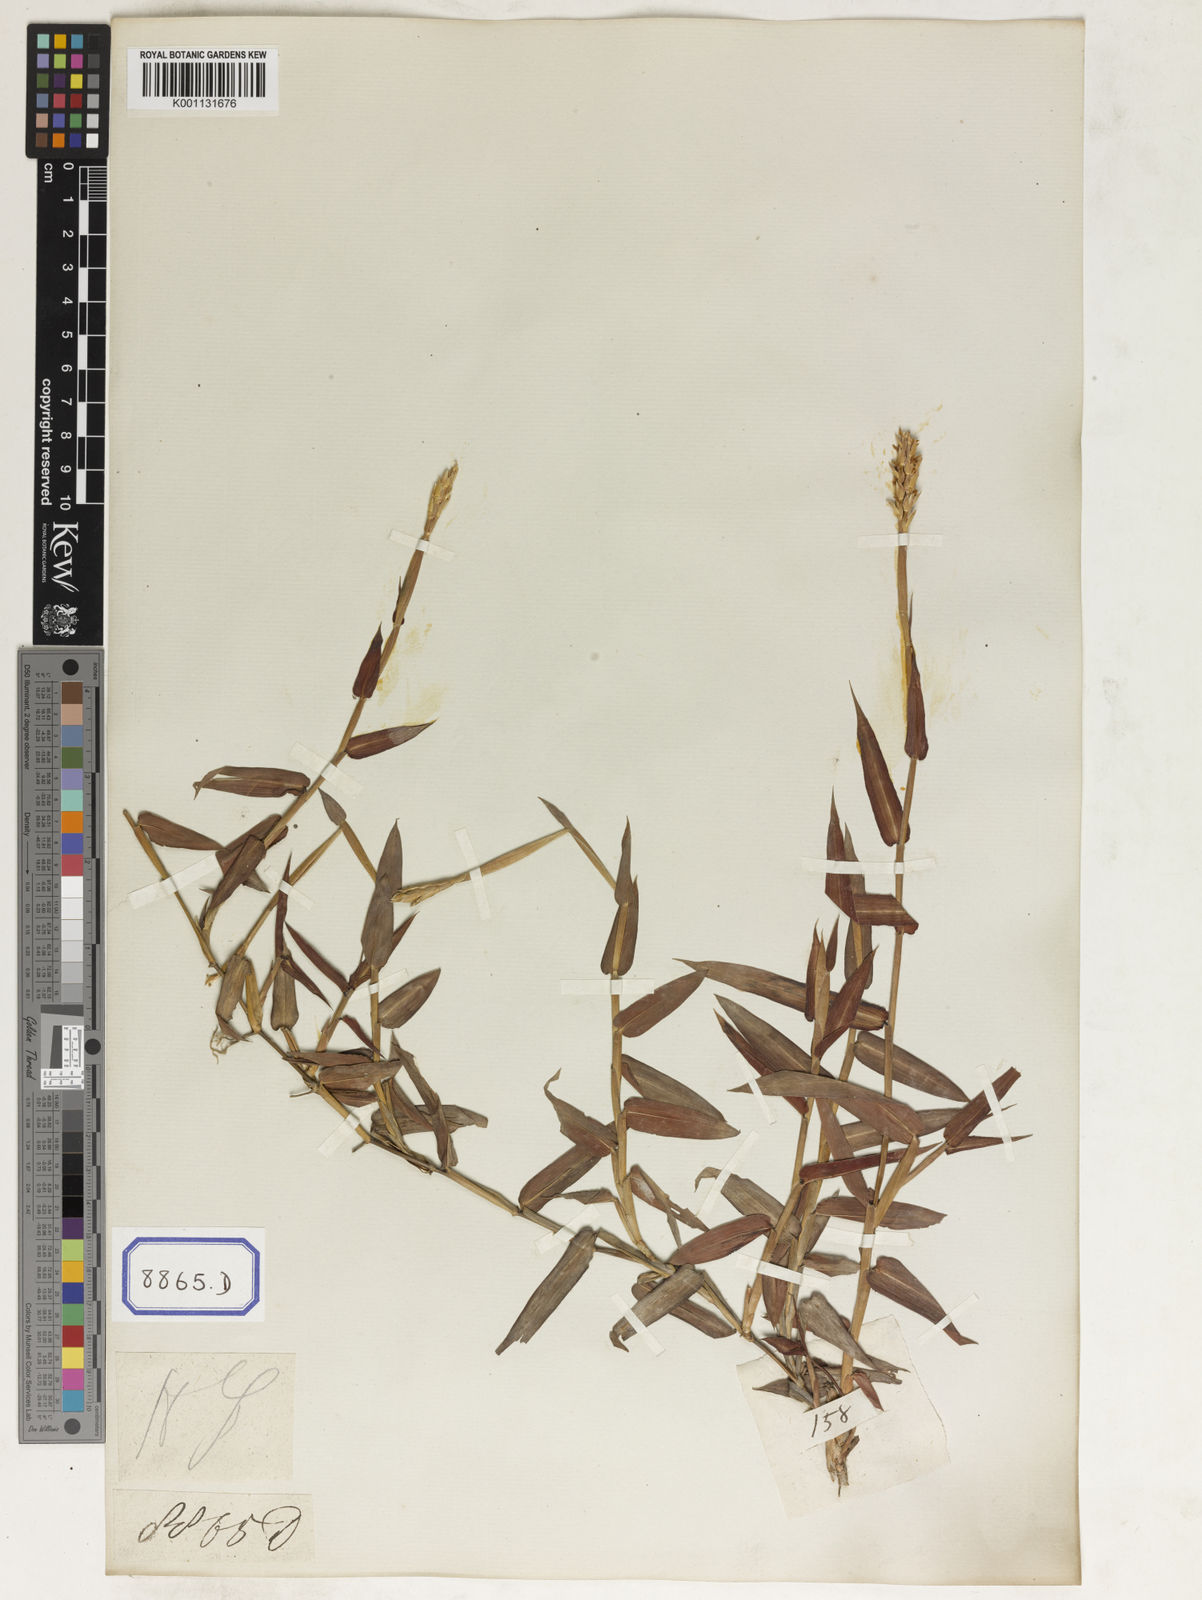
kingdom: Plantae
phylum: Tracheophyta
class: Liliopsida
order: Poales
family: Poaceae
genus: Ischaemum
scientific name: Ischaemum muticum
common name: Drought grass
